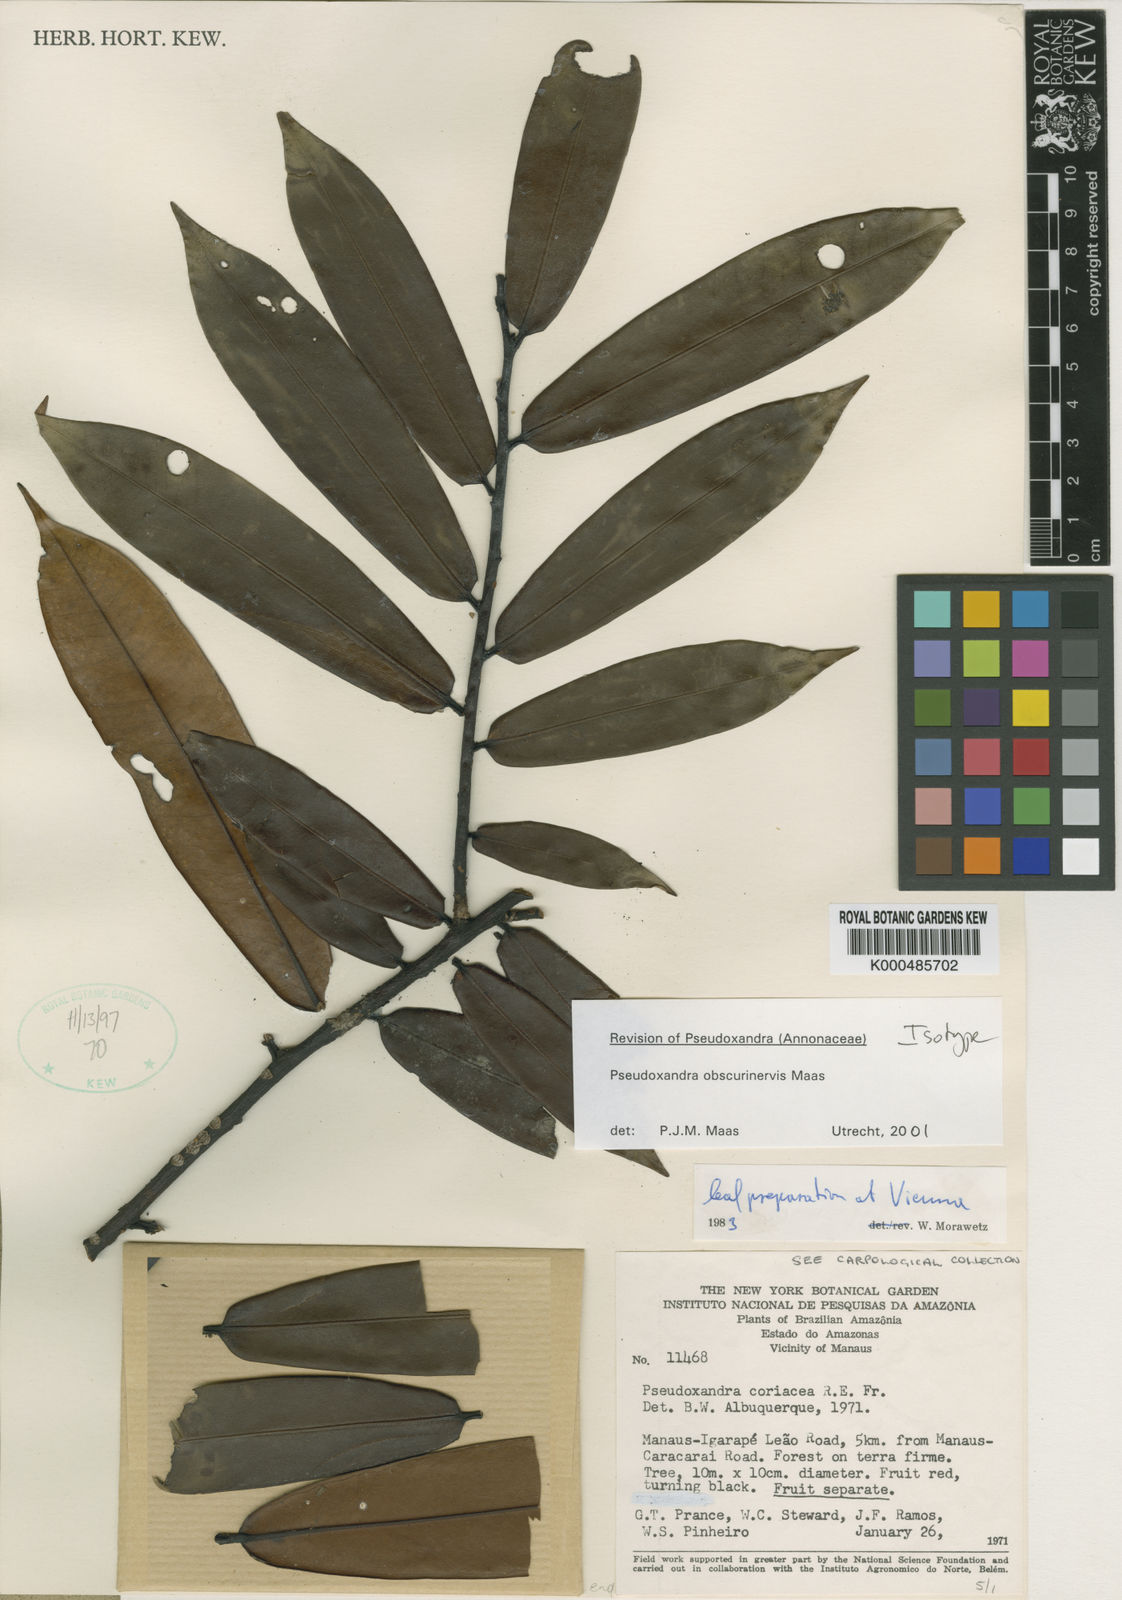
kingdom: Plantae
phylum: Tracheophyta
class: Magnoliopsida
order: Magnoliales
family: Annonaceae
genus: Pseudoxandra
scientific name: Pseudoxandra obscurinervis
